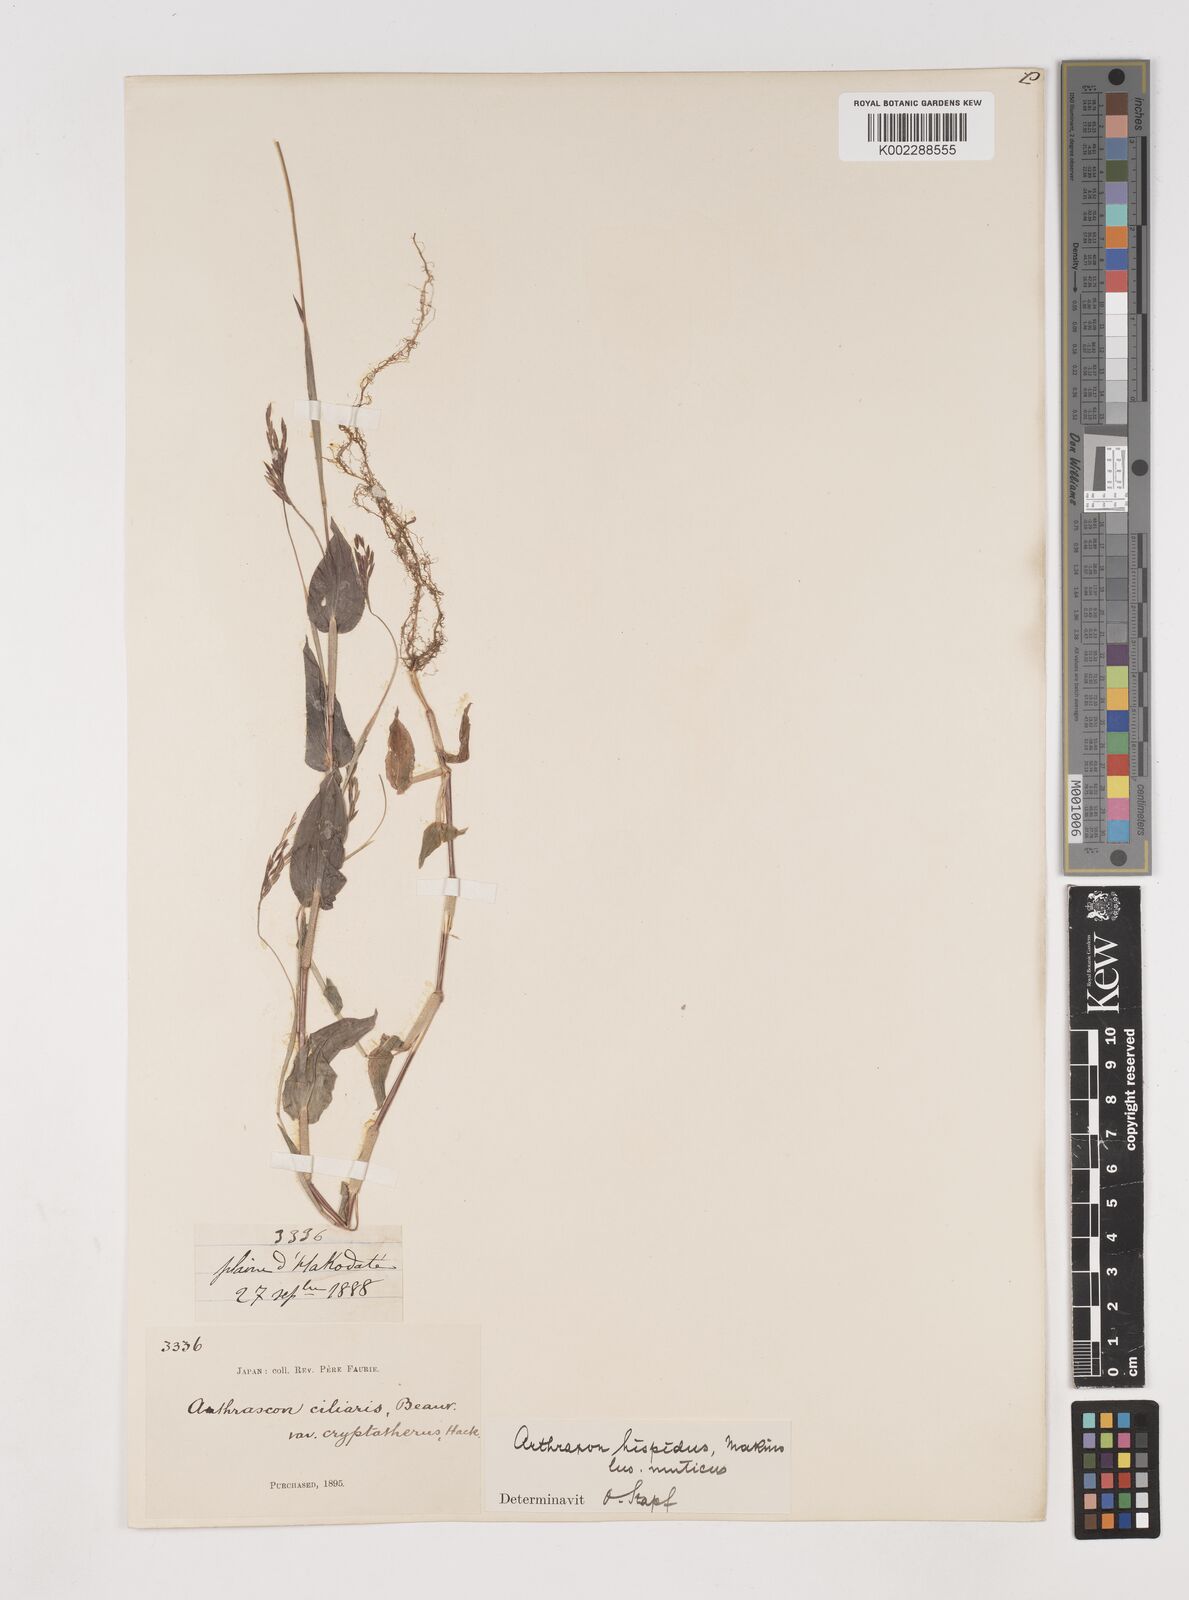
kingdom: Plantae
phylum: Tracheophyta
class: Liliopsida
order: Poales
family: Poaceae
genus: Arthraxon
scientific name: Arthraxon hispidus
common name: Small carpgrass
